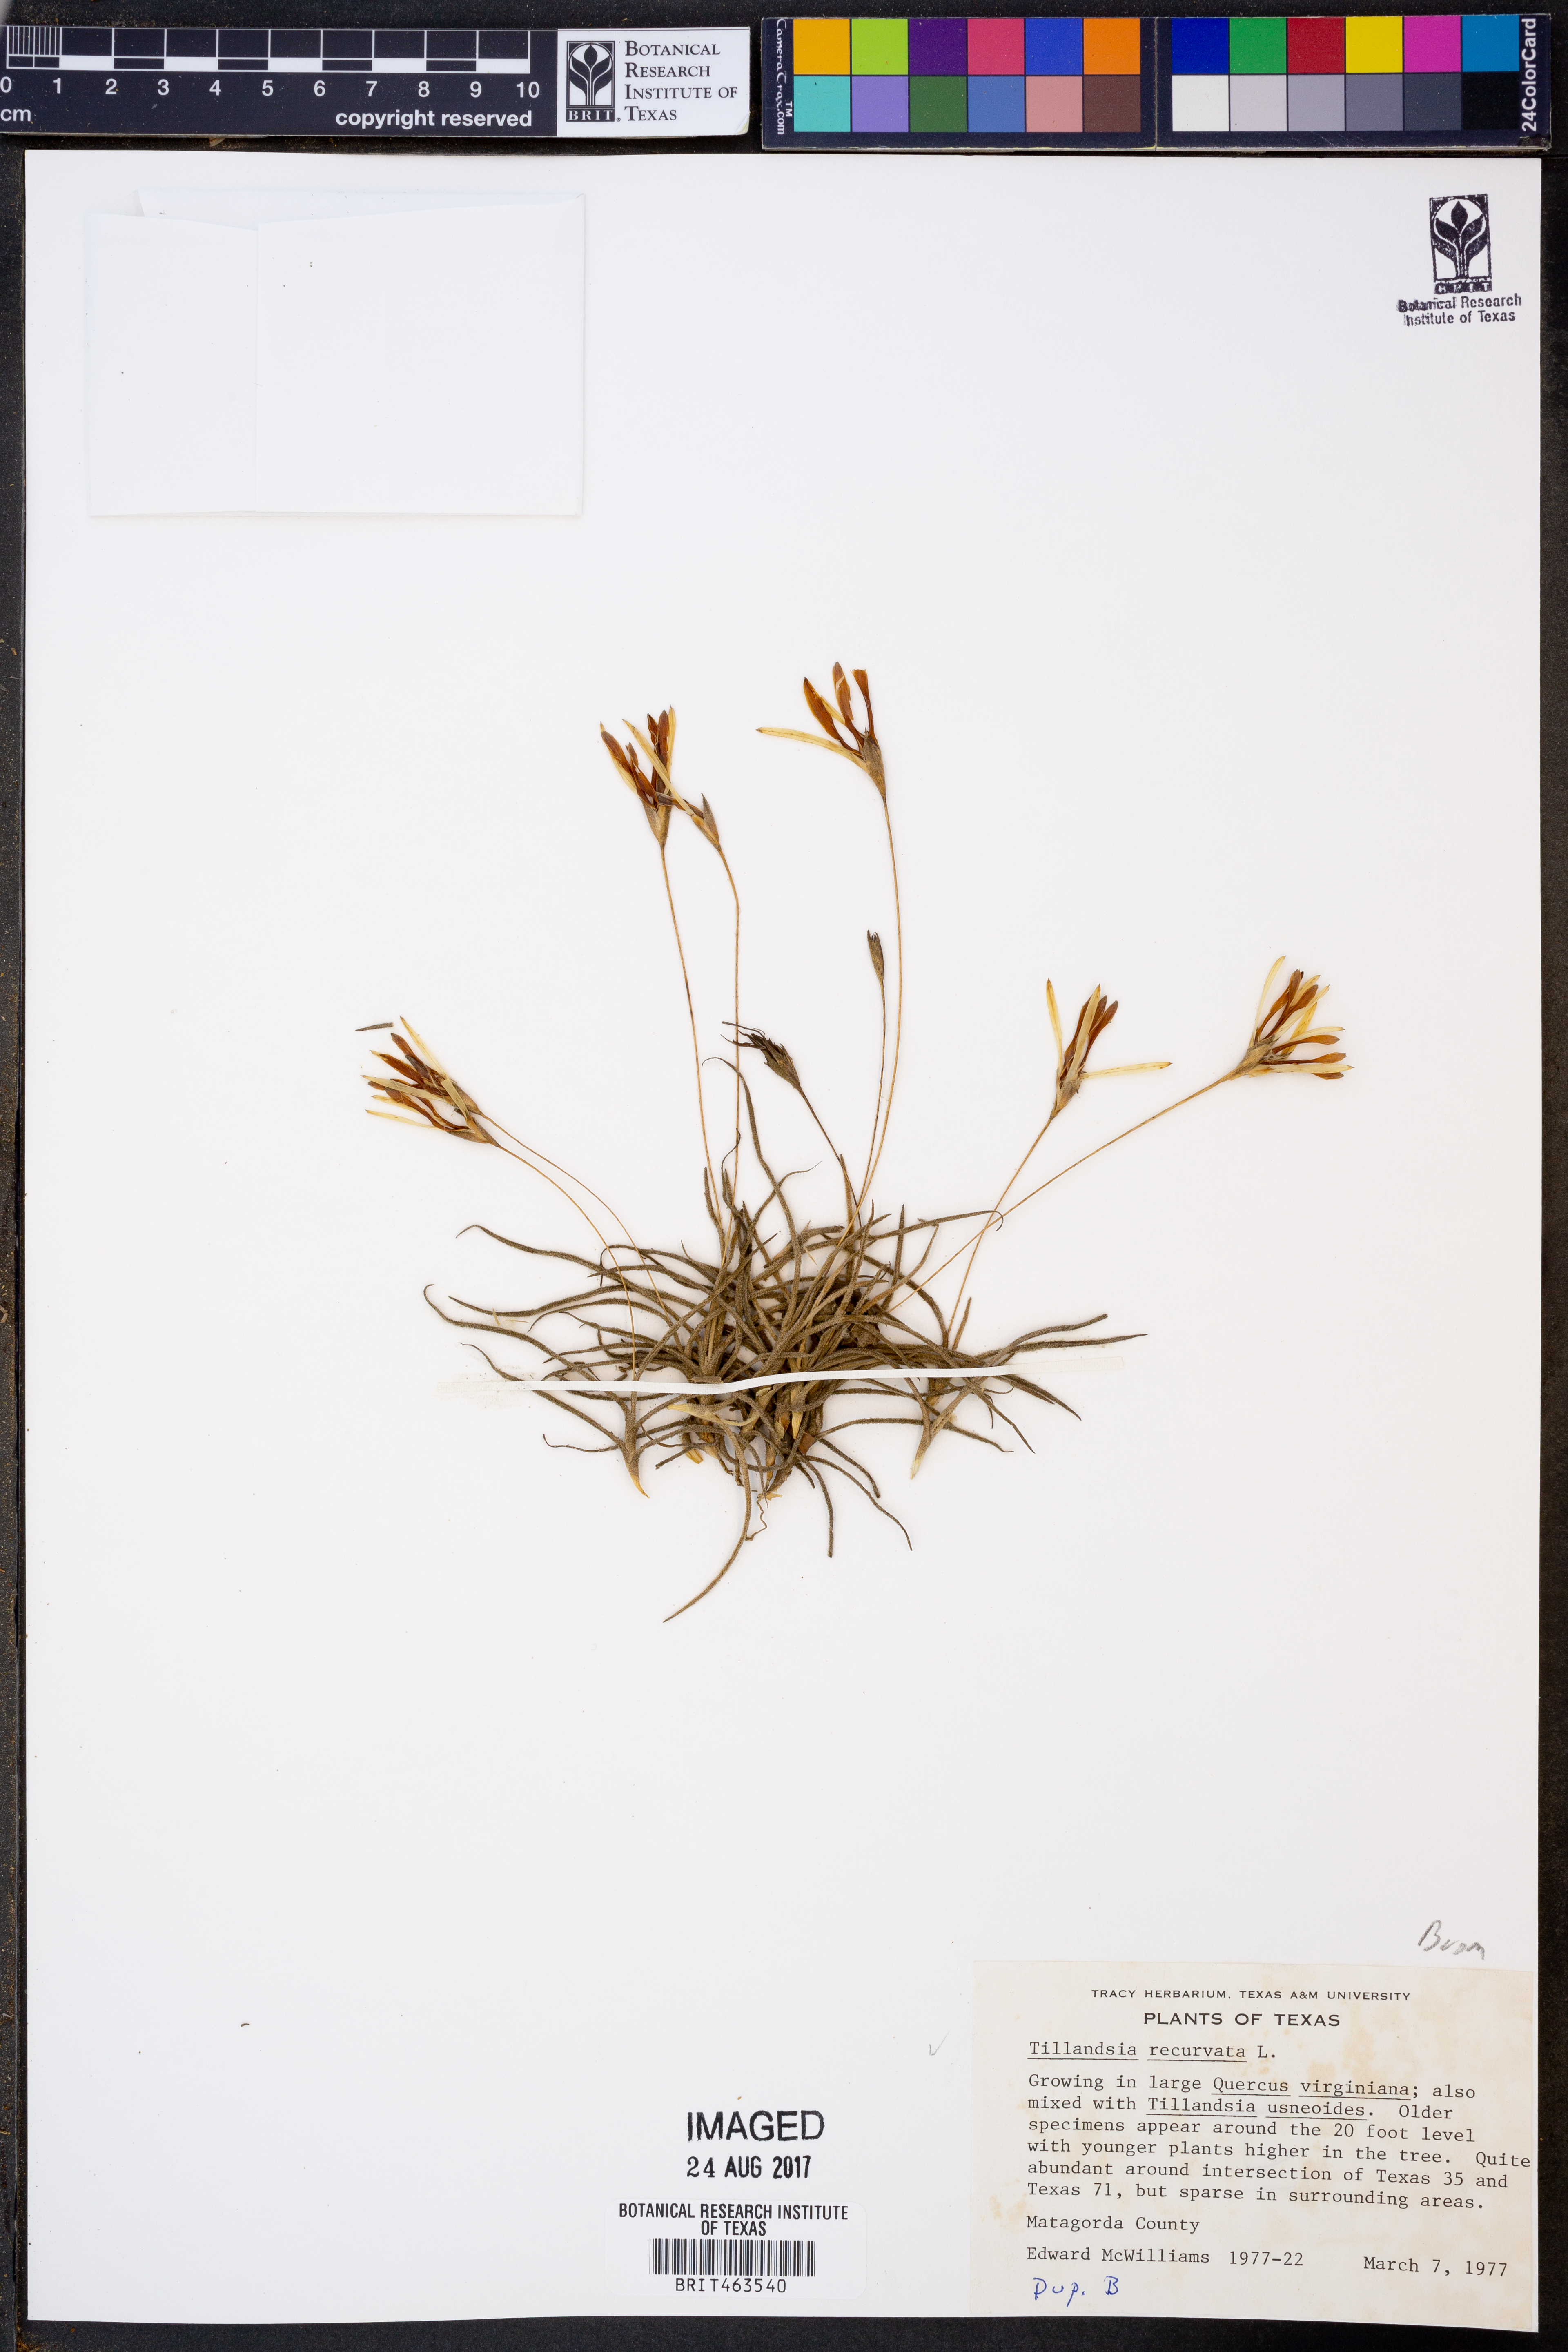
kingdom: Plantae
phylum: Tracheophyta
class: Liliopsida
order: Poales
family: Bromeliaceae
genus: Tillandsia
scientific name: Tillandsia recurvata
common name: Small ballmoss
